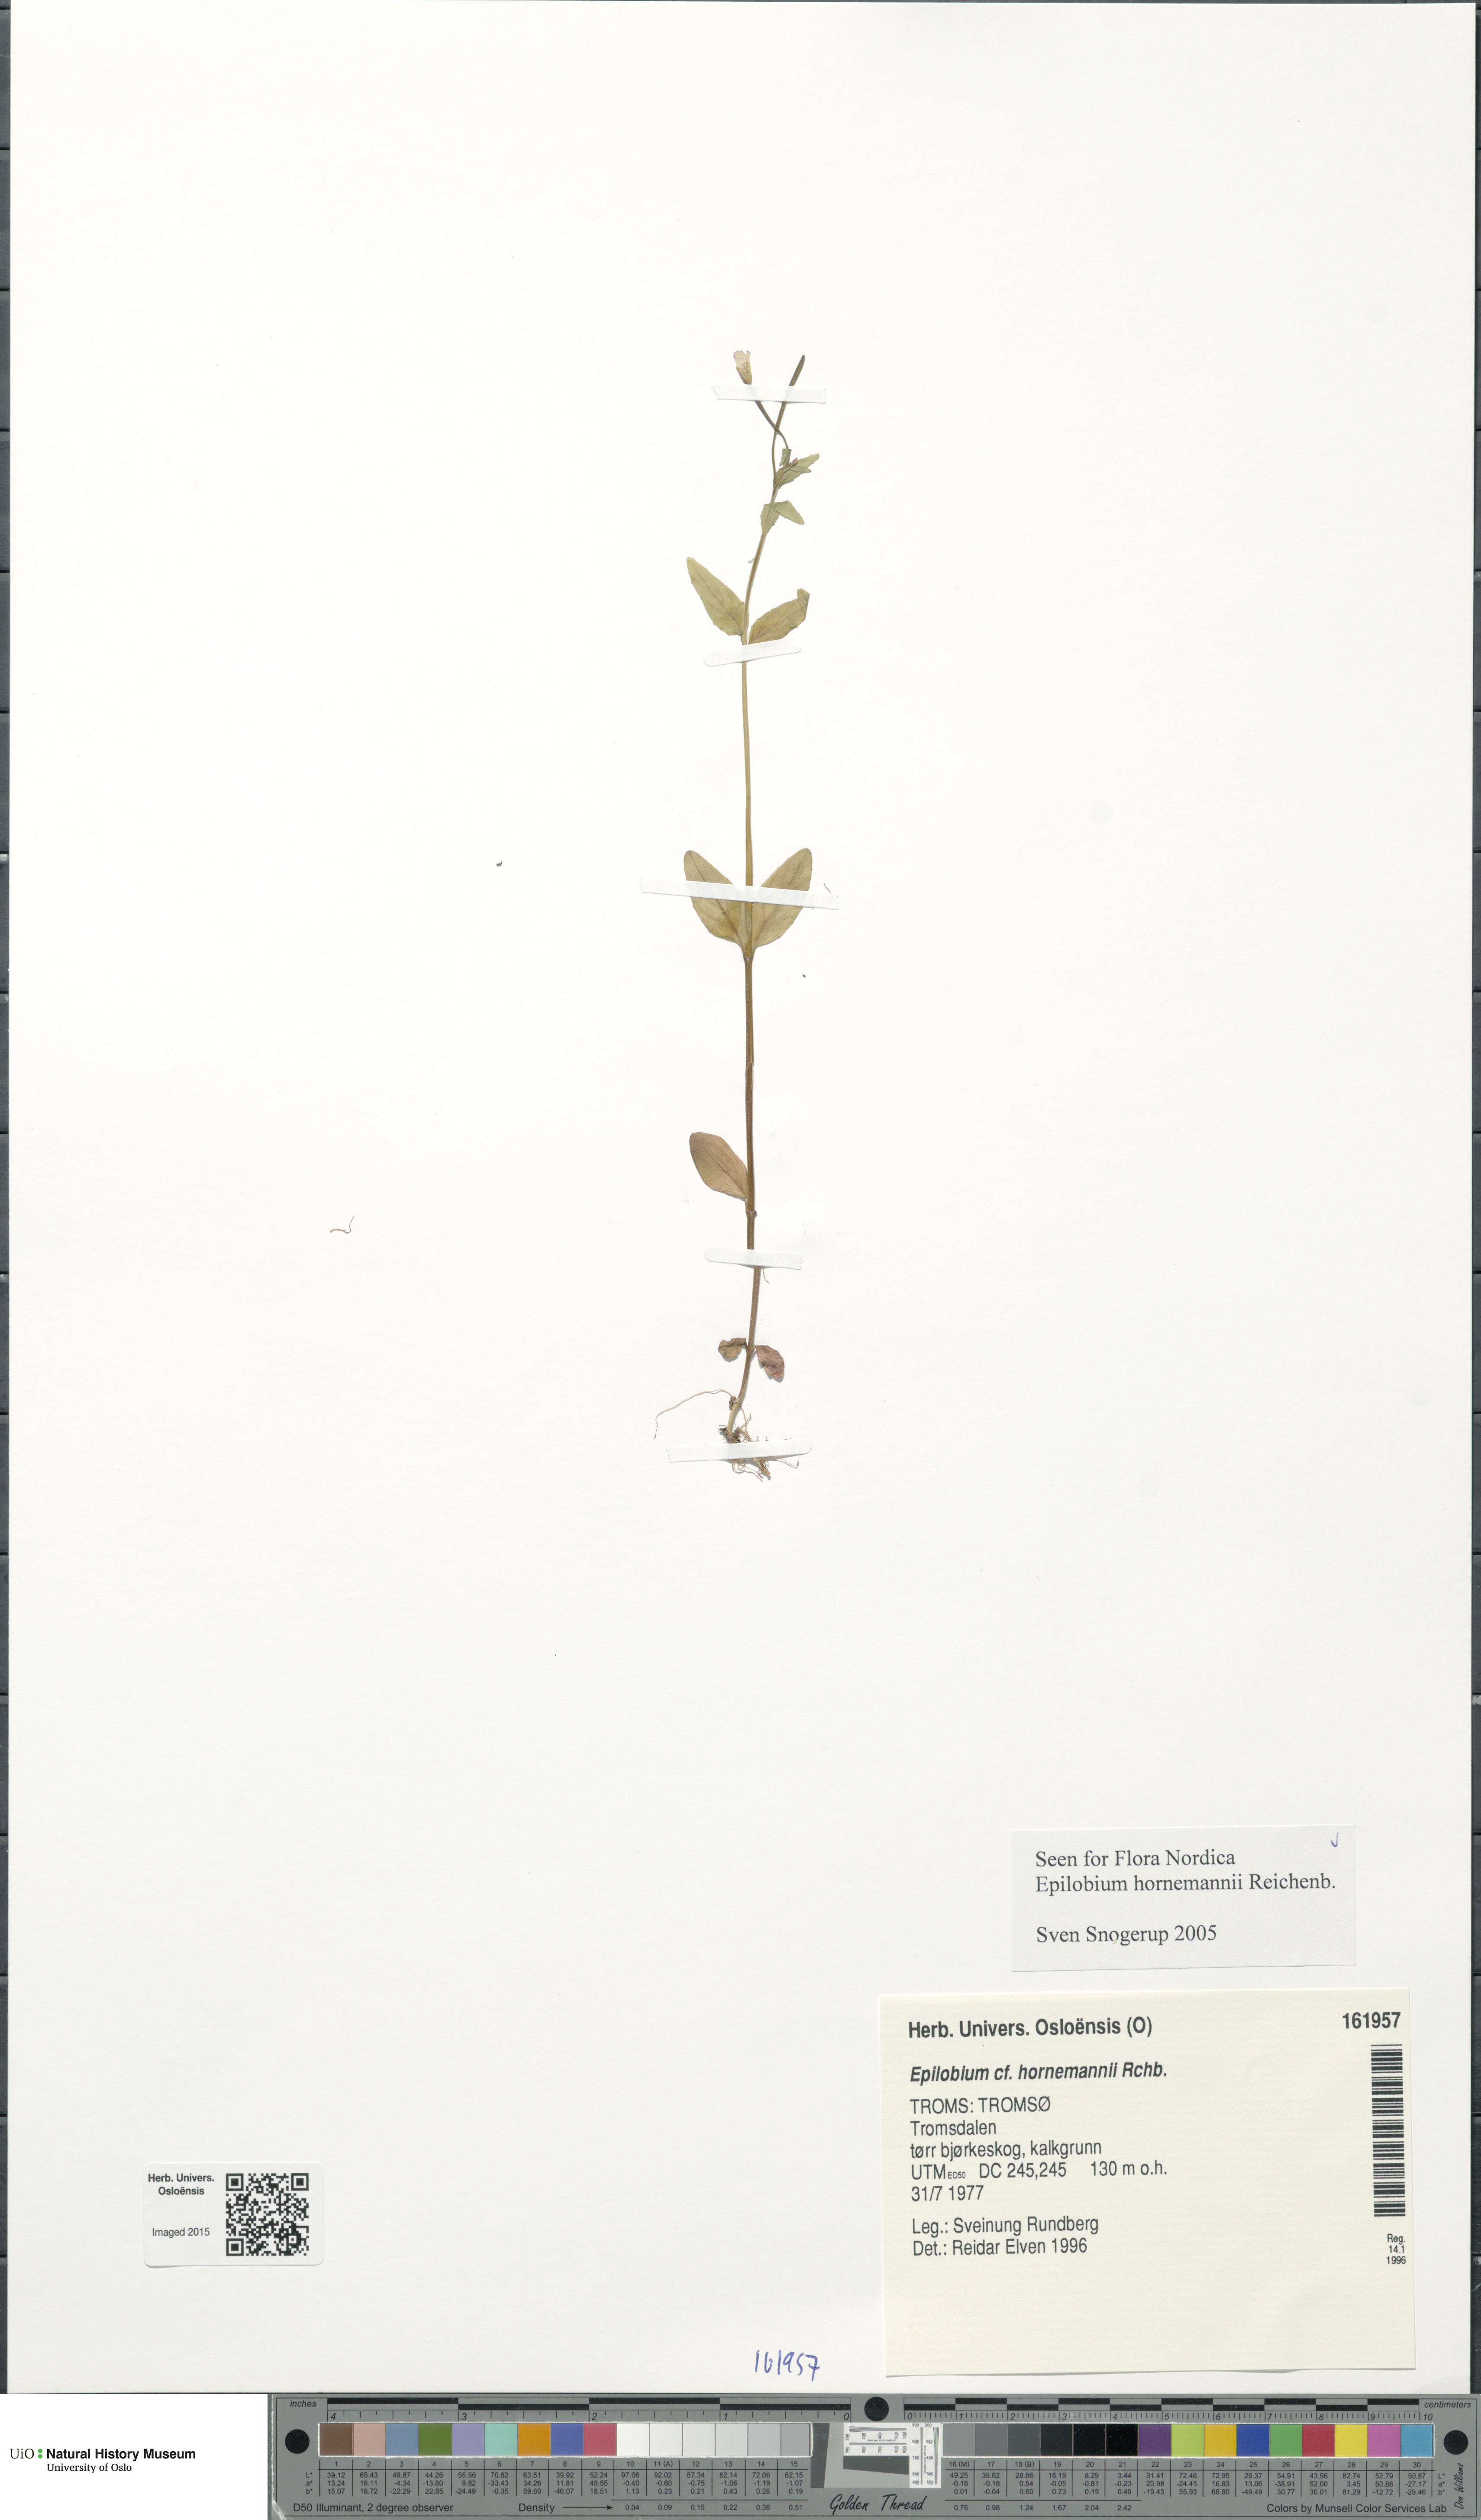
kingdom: Plantae
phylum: Tracheophyta
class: Magnoliopsida
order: Myrtales
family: Onagraceae
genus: Epilobium
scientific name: Epilobium hornemannii
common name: Hornemann's willowherb
